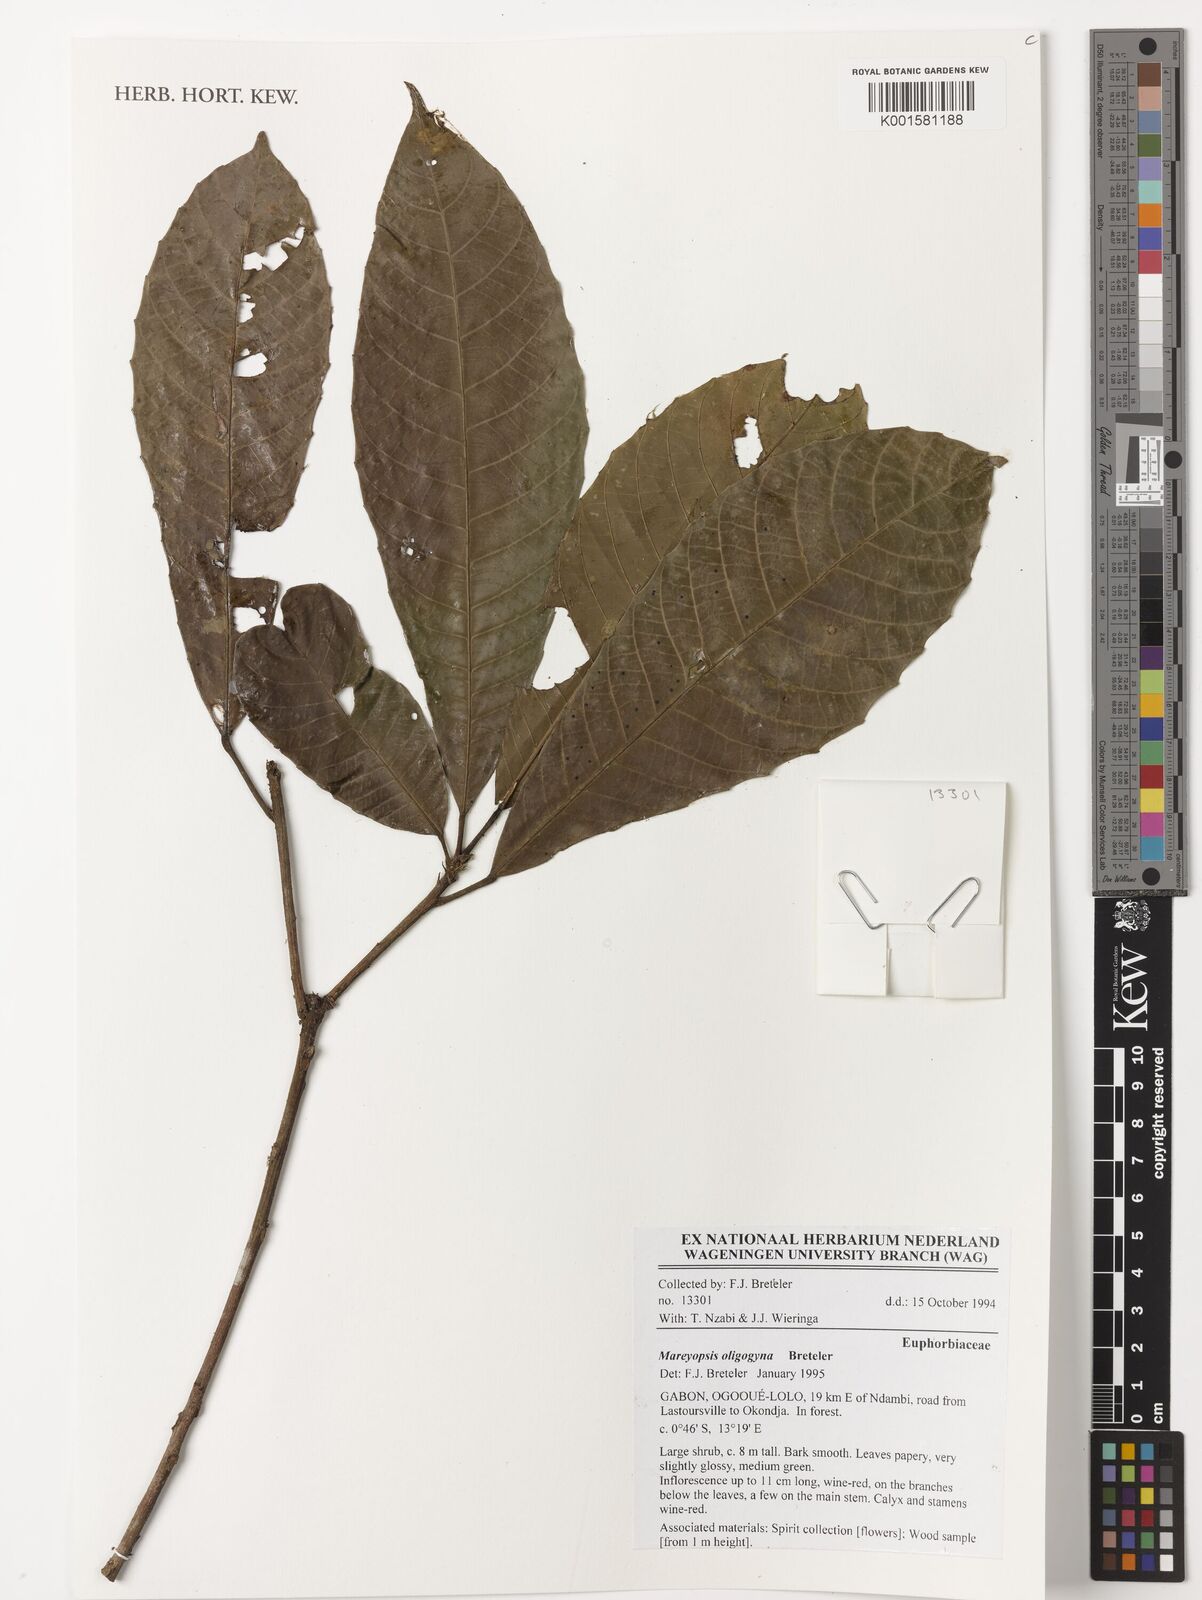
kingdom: Plantae
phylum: Tracheophyta
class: Magnoliopsida
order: Malpighiales
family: Euphorbiaceae
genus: Mareyopsis
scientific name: Mareyopsis oligogyna
